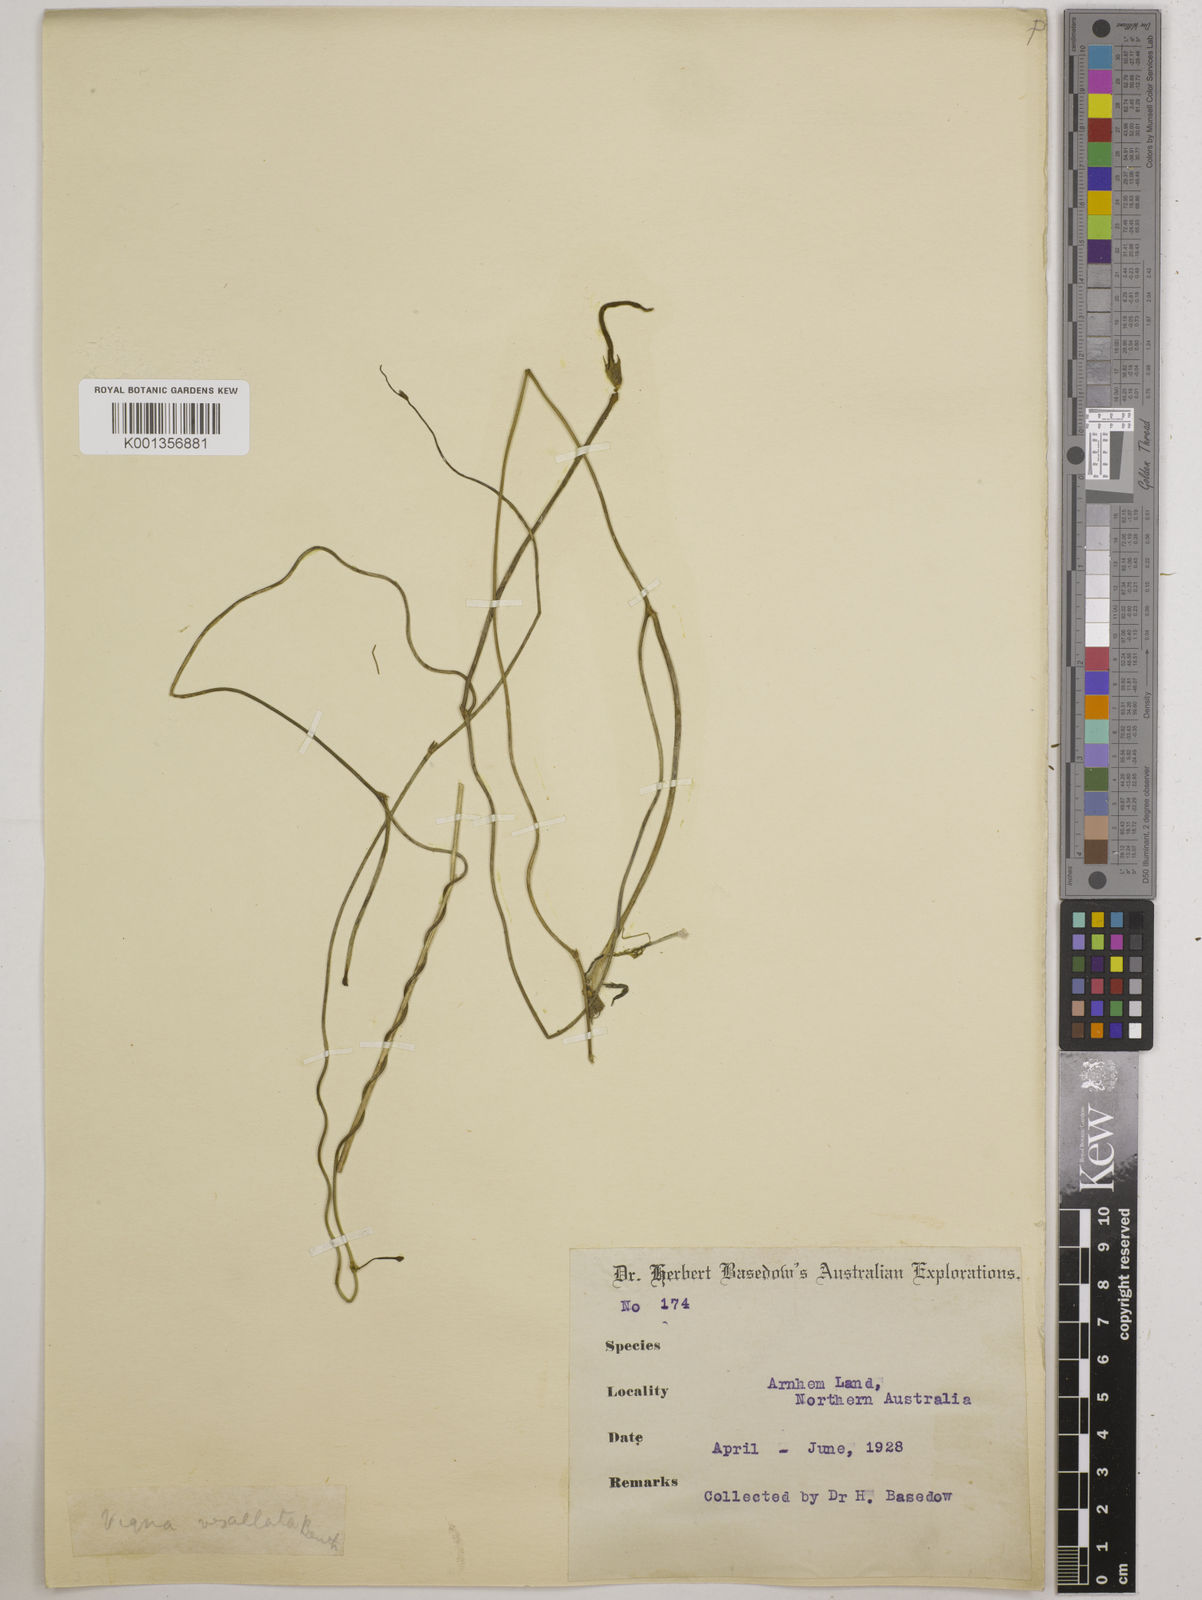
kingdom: Plantae
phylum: Tracheophyta
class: Magnoliopsida
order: Fabales
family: Fabaceae
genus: Vigna
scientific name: Vigna vexillata
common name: Zombi pea
